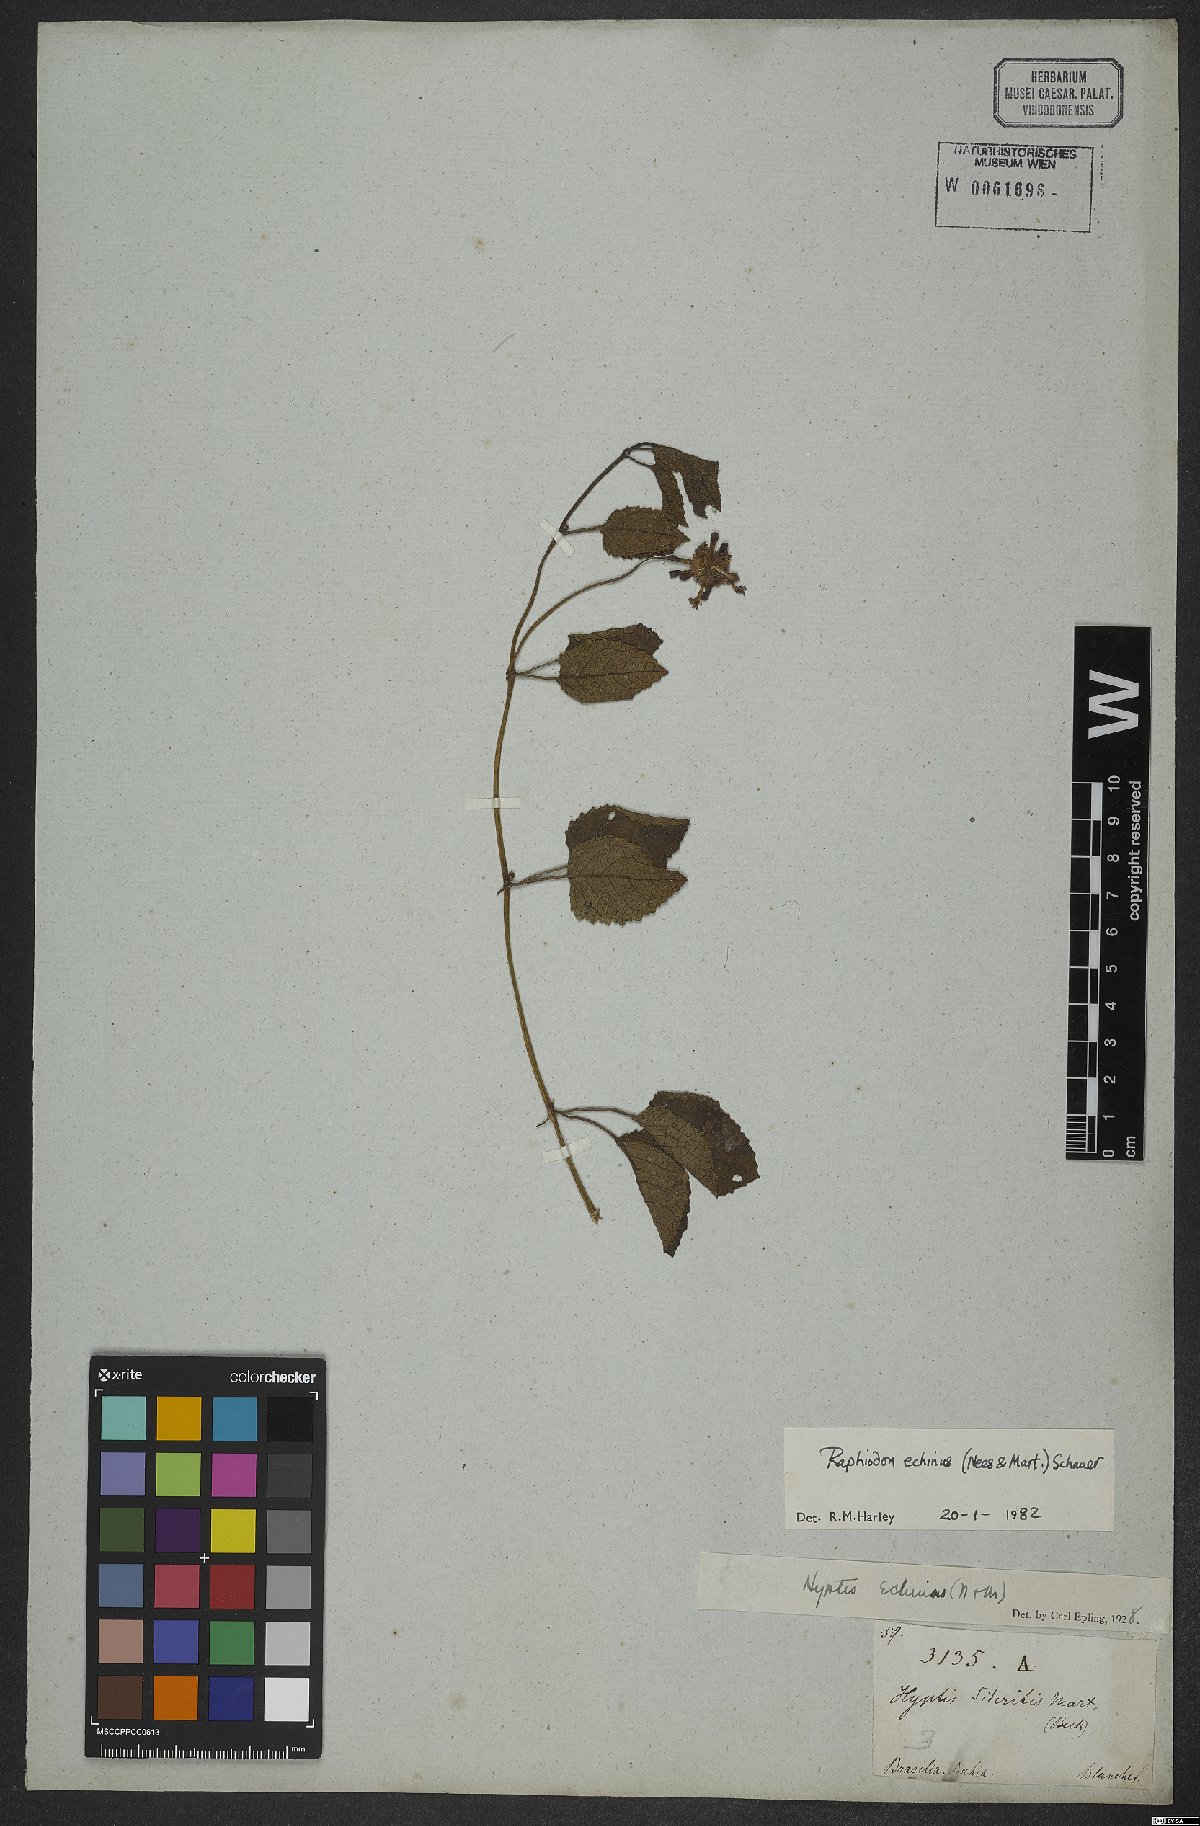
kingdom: Plantae
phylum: Tracheophyta
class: Magnoliopsida
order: Lamiales
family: Lamiaceae
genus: Rhaphiodon
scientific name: Rhaphiodon echinus
